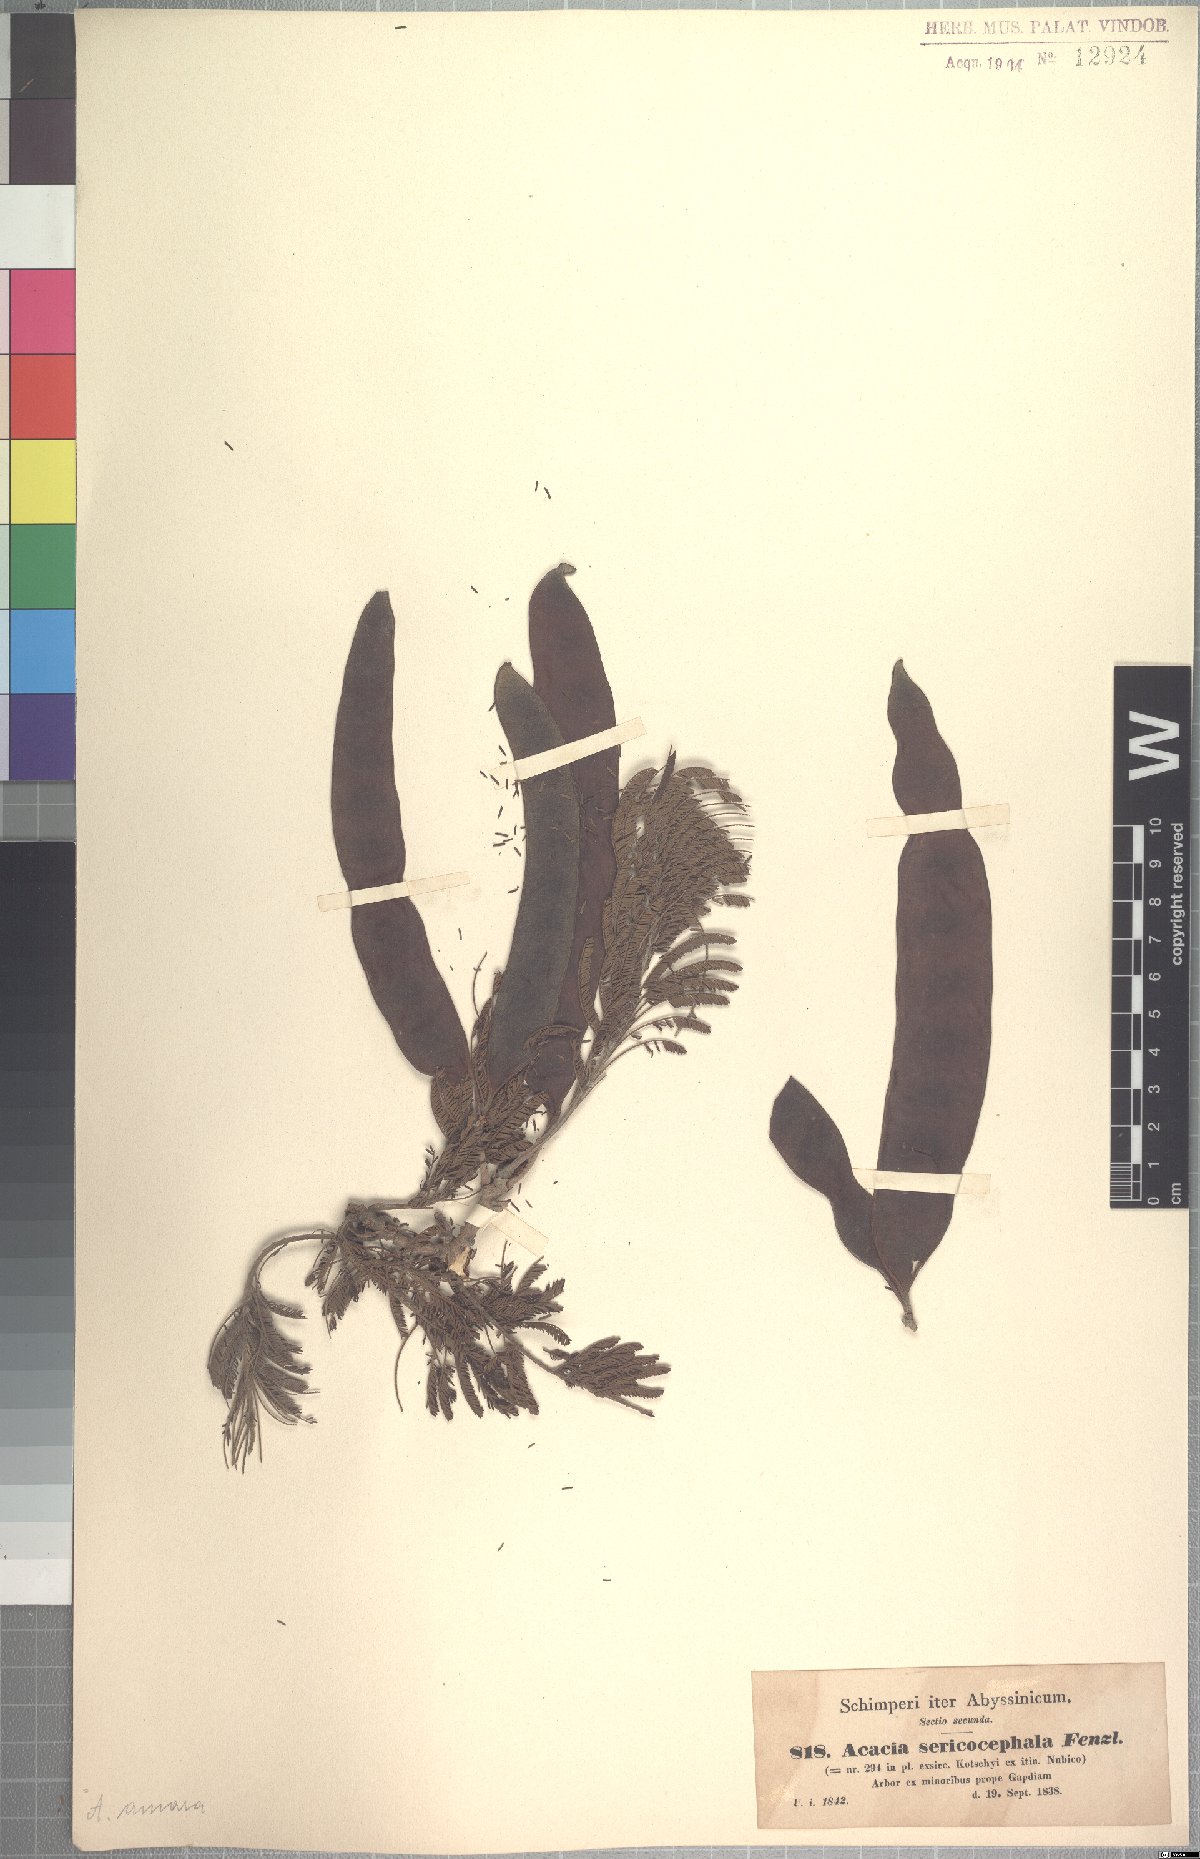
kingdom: Plantae
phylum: Tracheophyta
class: Magnoliopsida
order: Fabales
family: Fabaceae
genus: Albizia
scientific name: Albizia amara
